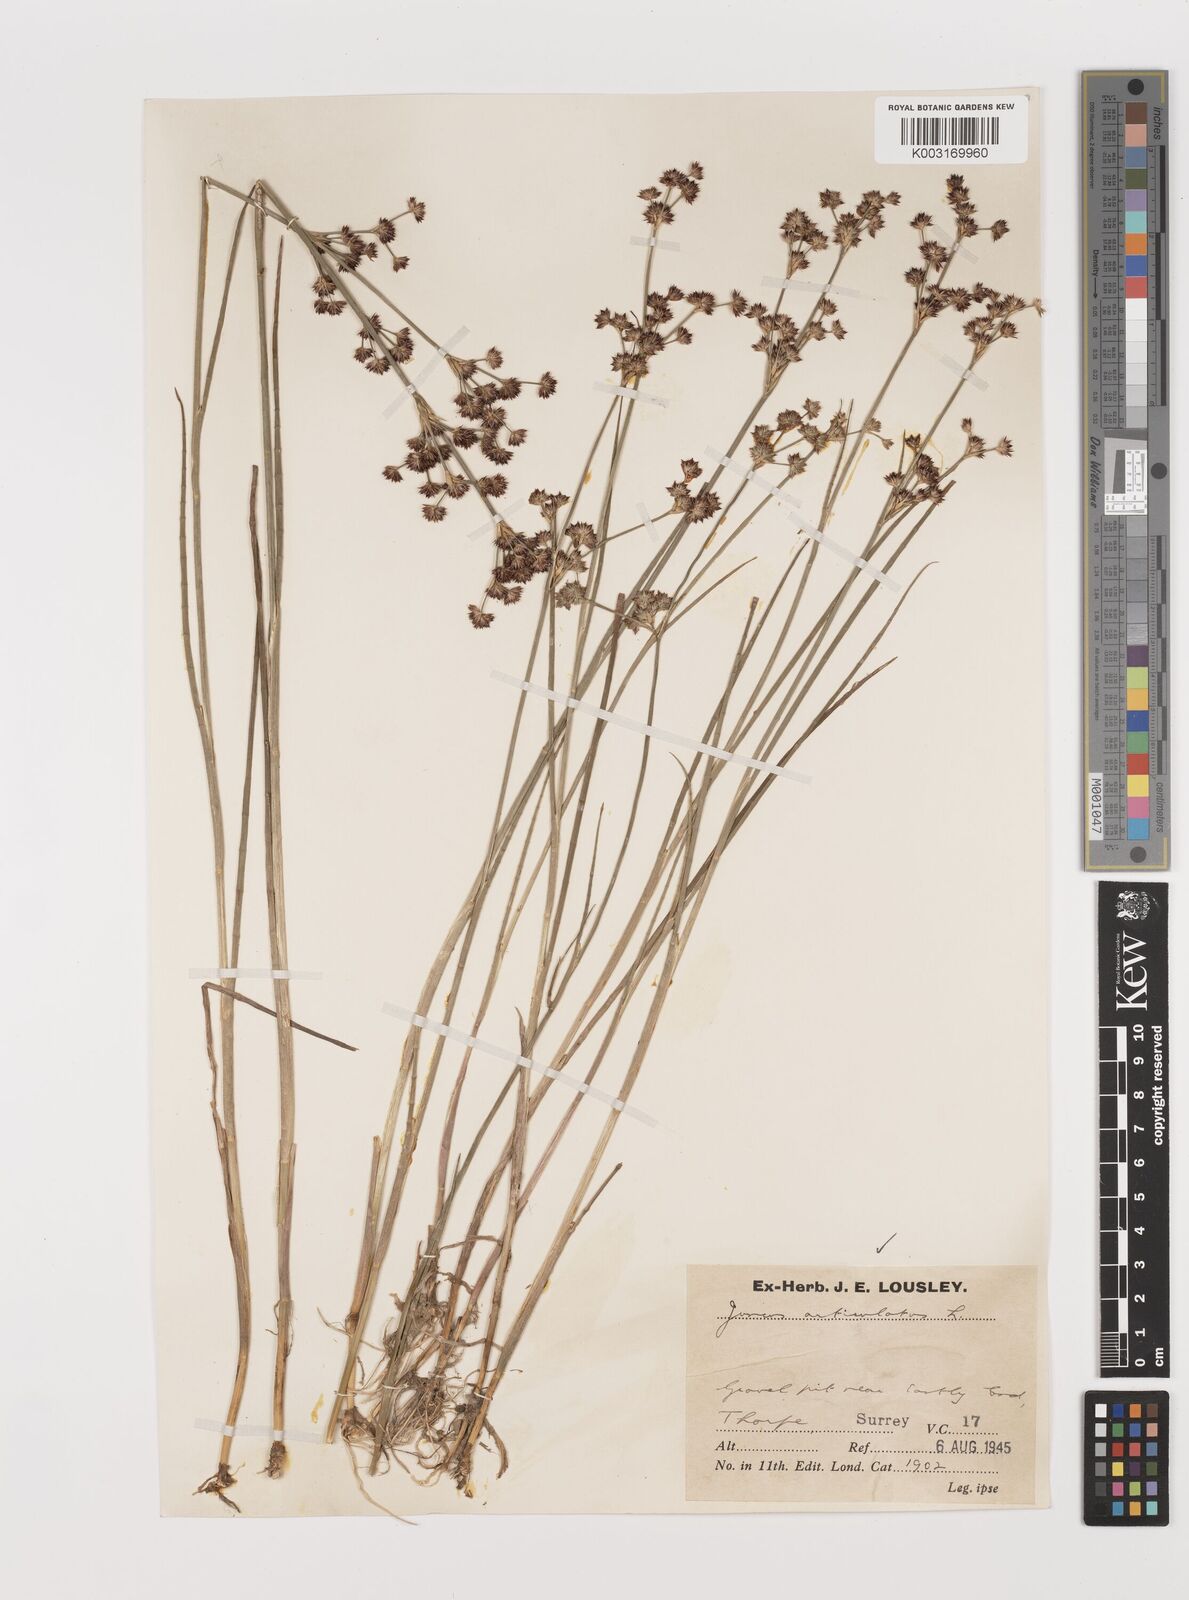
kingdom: Plantae
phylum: Tracheophyta
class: Liliopsida
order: Poales
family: Juncaceae
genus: Juncus
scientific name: Juncus articulatus
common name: Jointed rush
